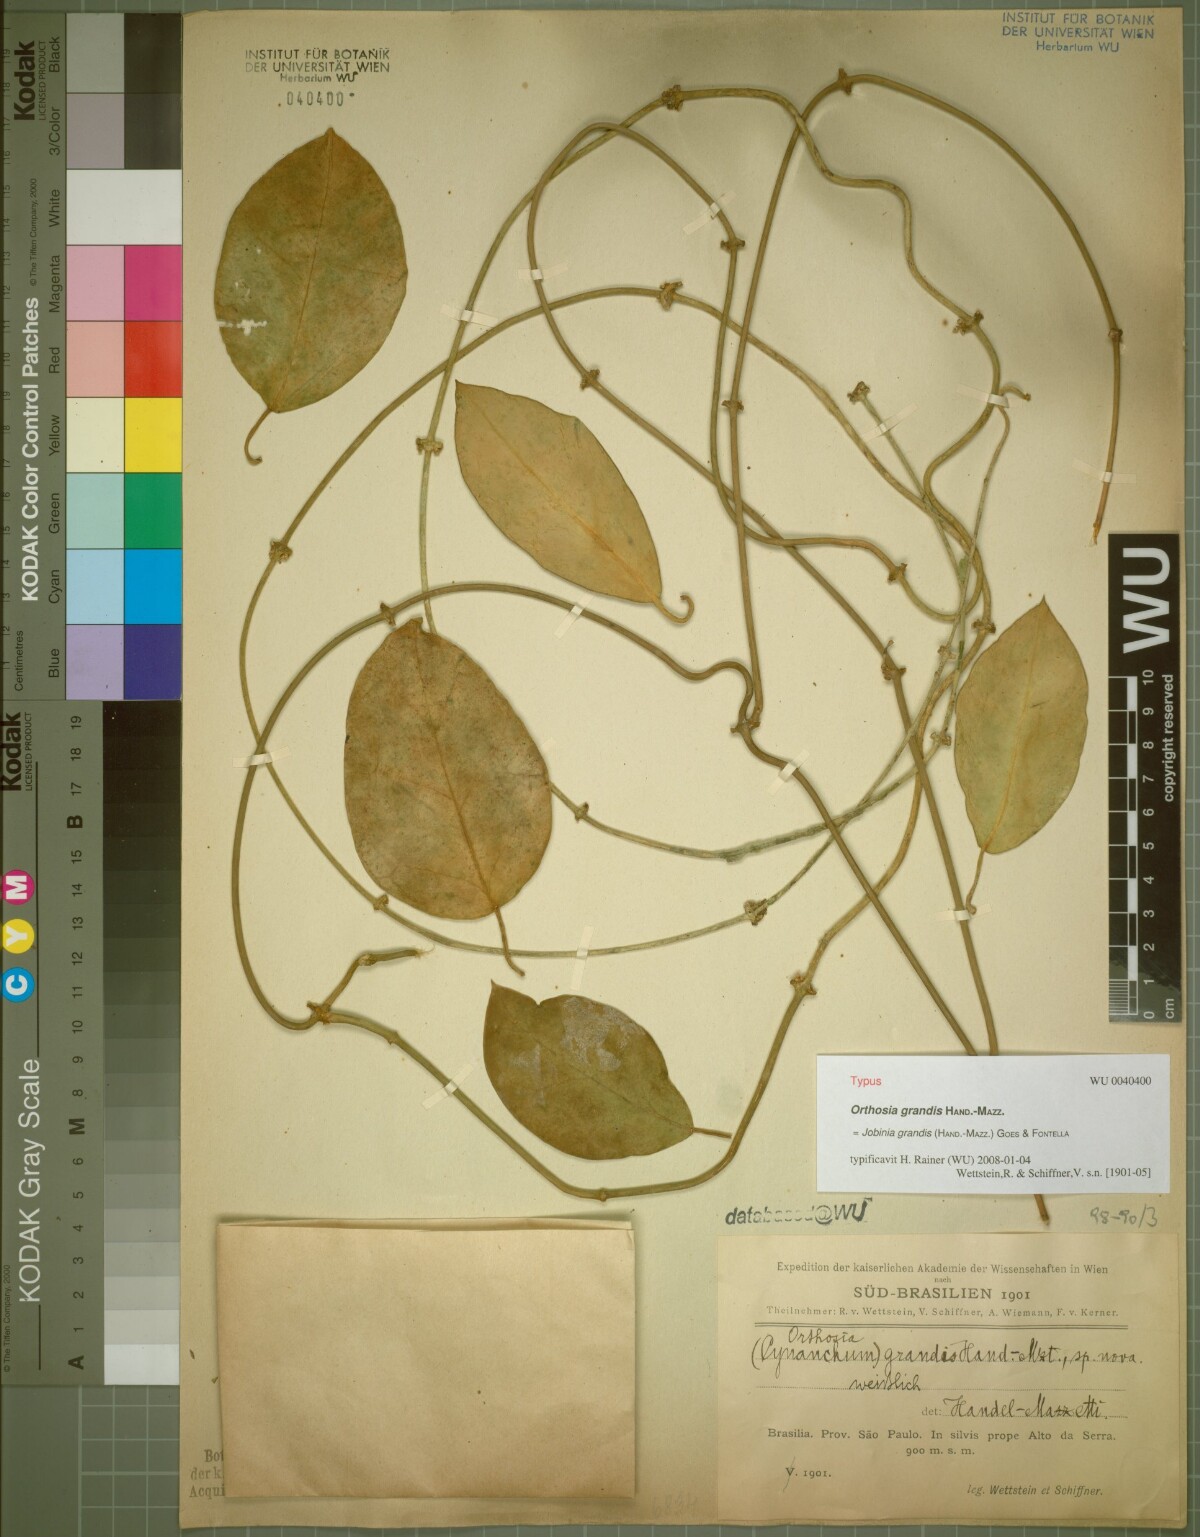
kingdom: Plantae
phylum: Tracheophyta
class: Magnoliopsida
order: Gentianales
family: Apocynaceae
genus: Jobinia
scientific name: Jobinia grandis
